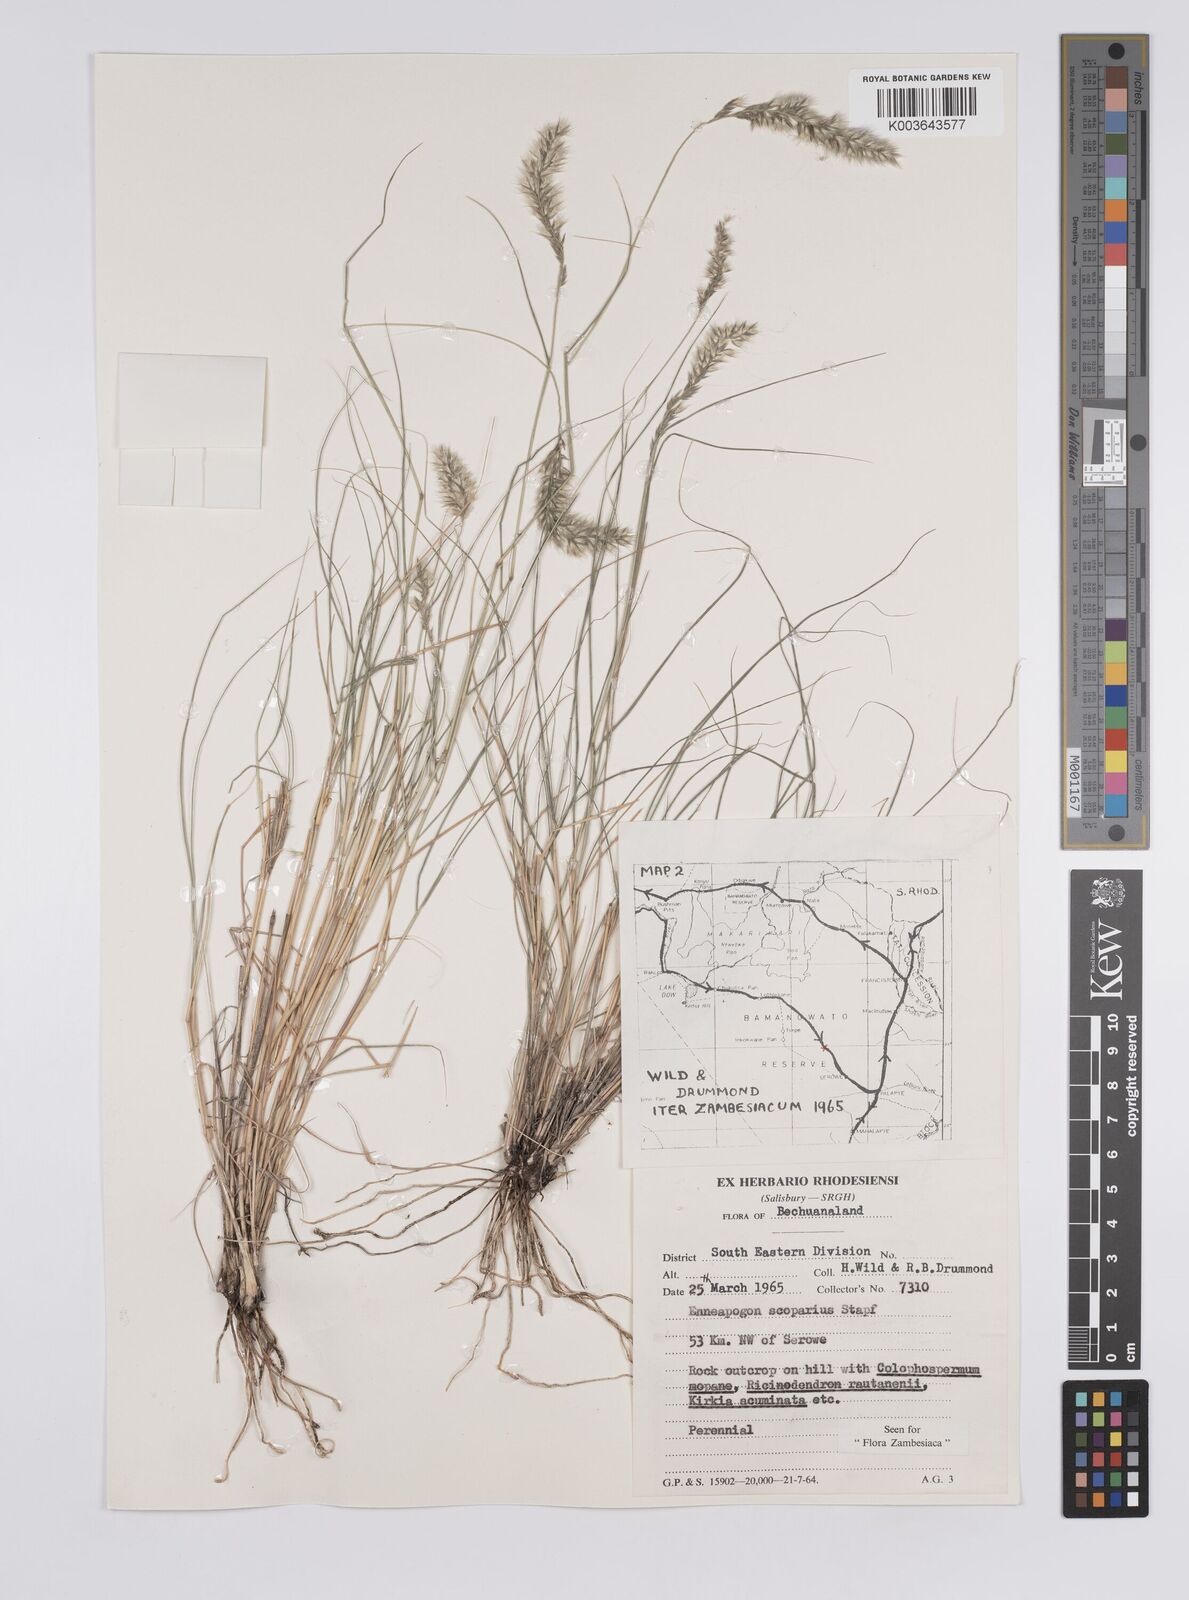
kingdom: Plantae
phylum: Tracheophyta
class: Liliopsida
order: Poales
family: Poaceae
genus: Enneapogon
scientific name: Enneapogon scoparius
